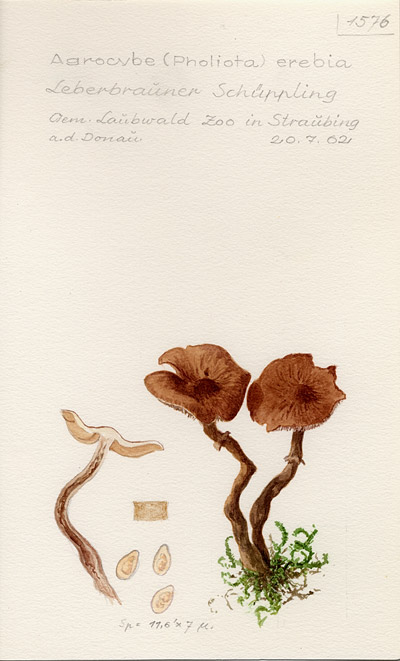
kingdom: Fungi
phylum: Basidiomycota
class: Agaricomycetes
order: Agaricales
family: Tubariaceae
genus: Cyclocybe
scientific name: Cyclocybe erebia
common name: Dark fieldcap
